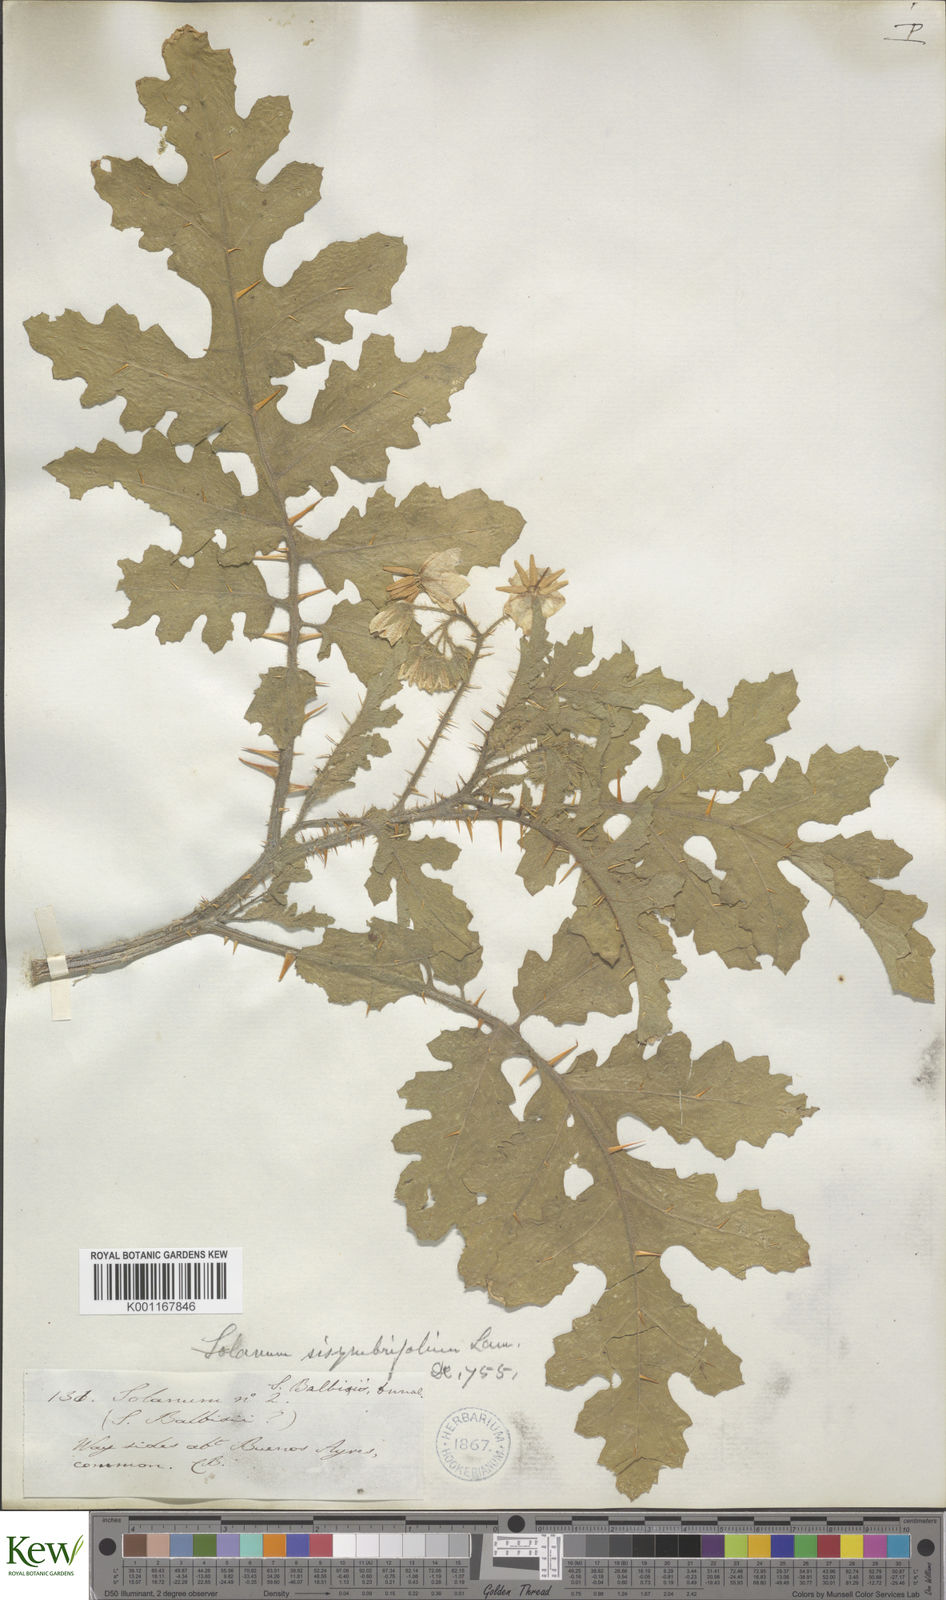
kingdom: Plantae
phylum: Tracheophyta
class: Magnoliopsida
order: Solanales
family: Solanaceae
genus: Solanum
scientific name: Solanum sisymbriifolium
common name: Red buffalo-bur
